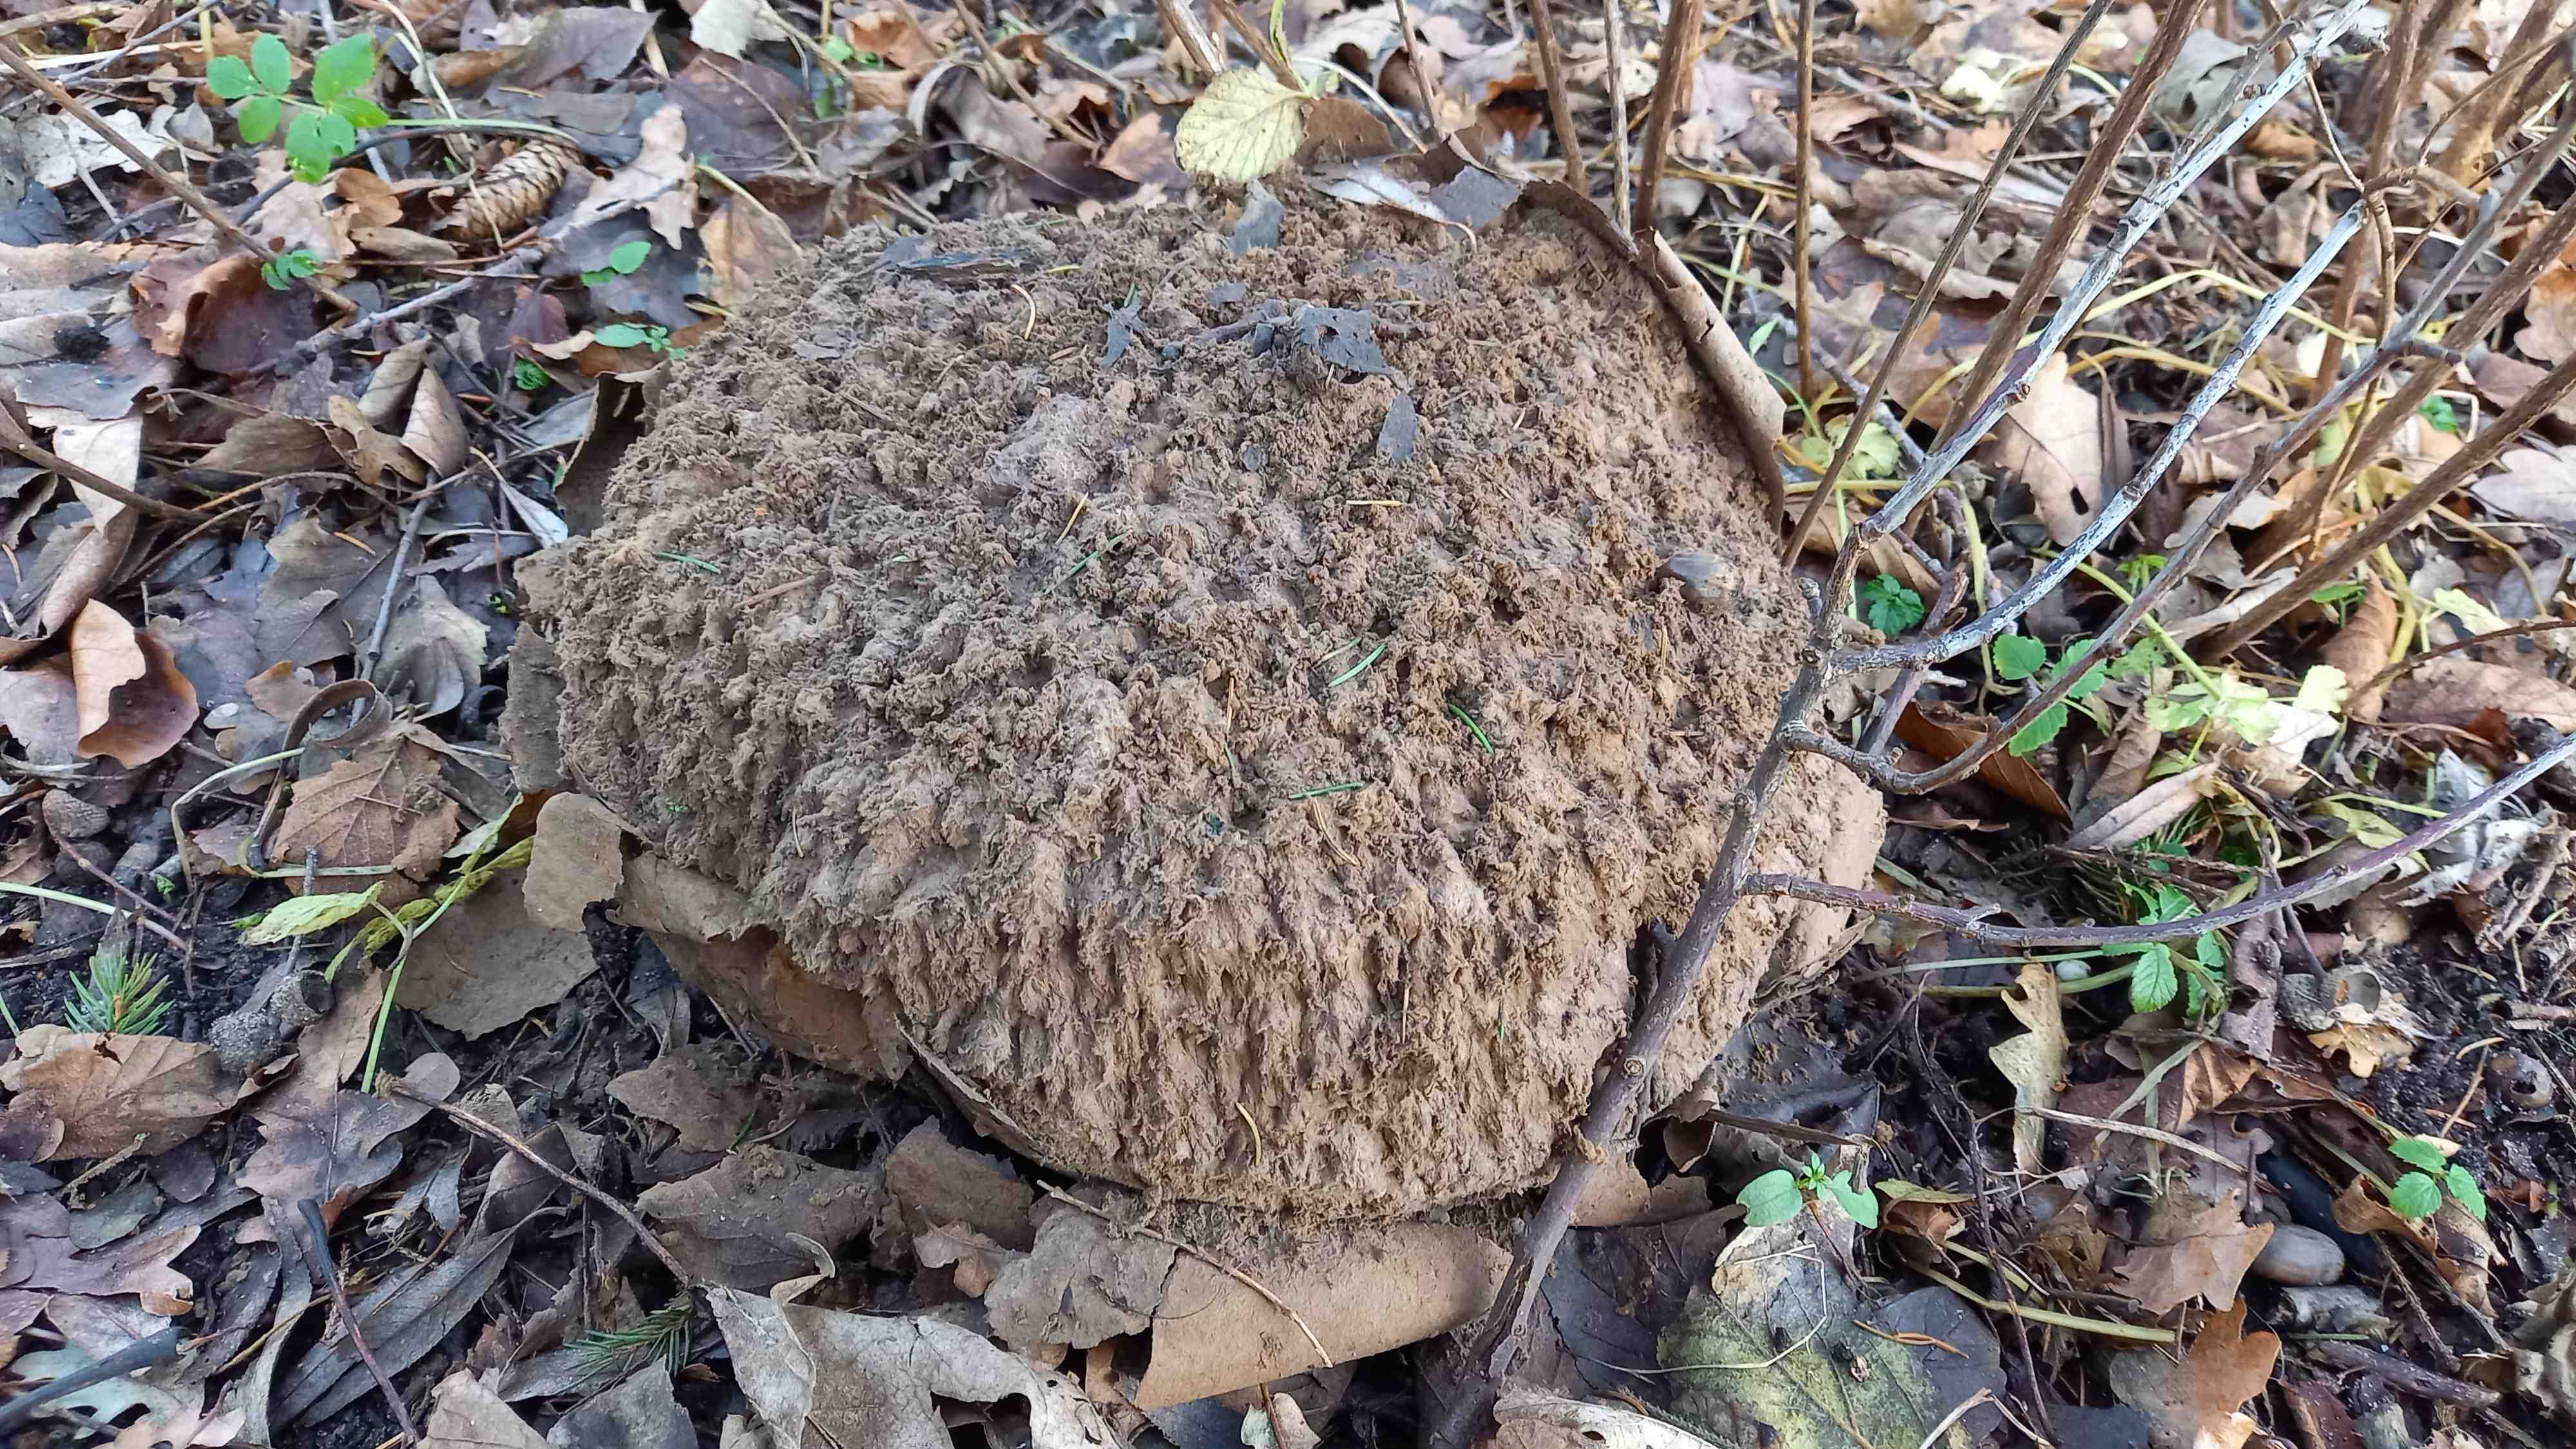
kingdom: Fungi
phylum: Basidiomycota
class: Agaricomycetes
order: Agaricales
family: Lycoperdaceae
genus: Calvatia
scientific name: Calvatia gigantea
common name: kæmpestøvbold
